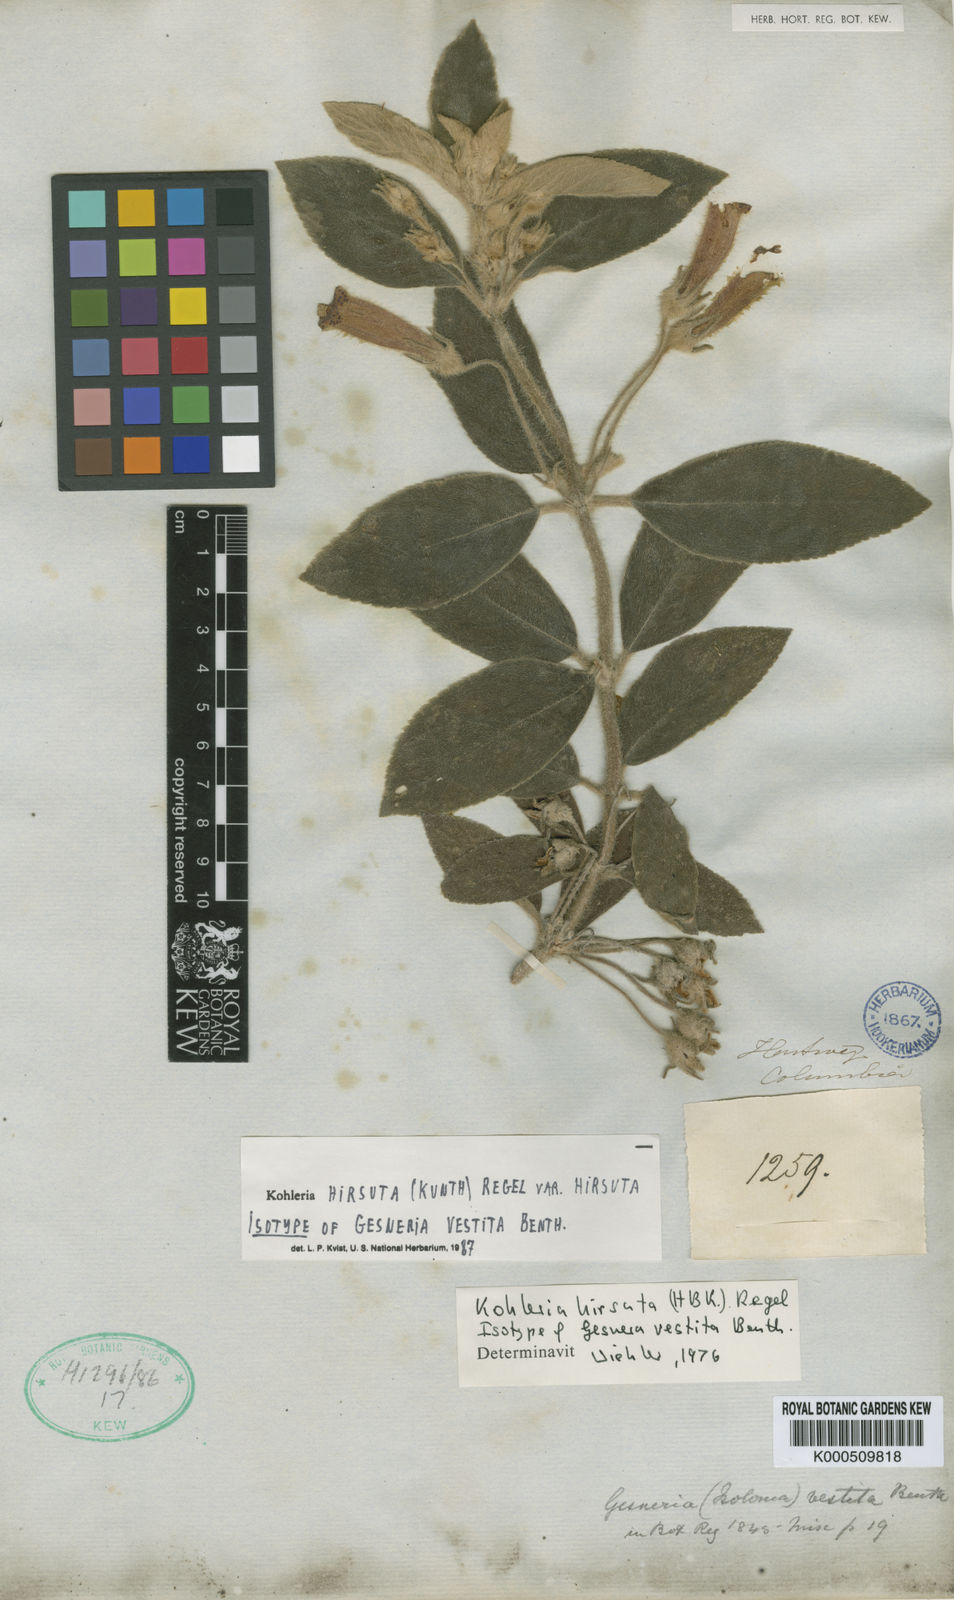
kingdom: Plantae
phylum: Tracheophyta
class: Magnoliopsida
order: Lamiales
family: Gesneriaceae
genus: Kohleria
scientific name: Kohleria hirsuta
